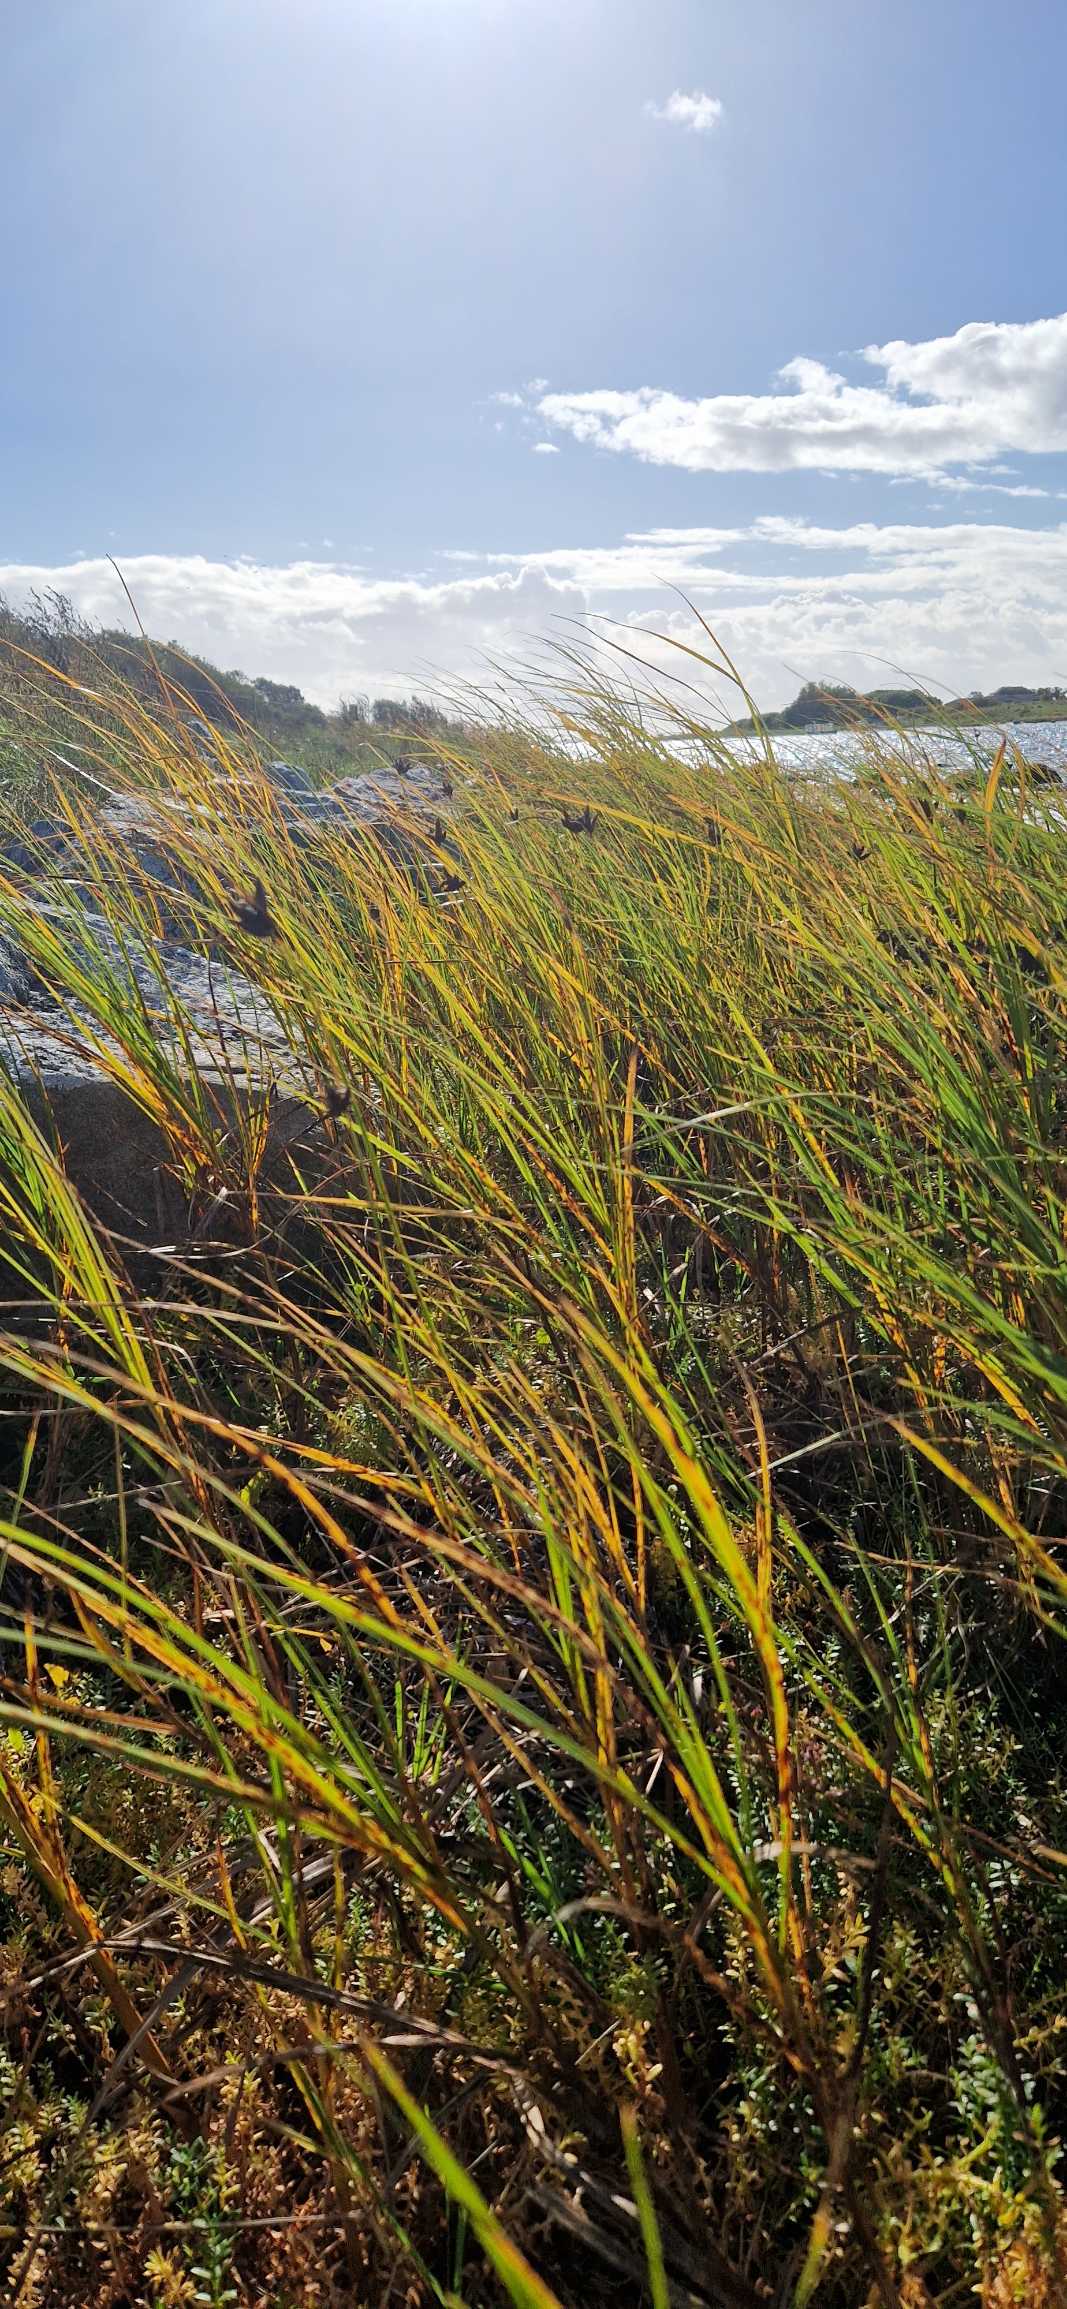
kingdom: Plantae
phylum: Tracheophyta
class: Liliopsida
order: Poales
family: Cyperaceae
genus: Bolboschoenus
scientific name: Bolboschoenus maritimus
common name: Strand-kogleaks
